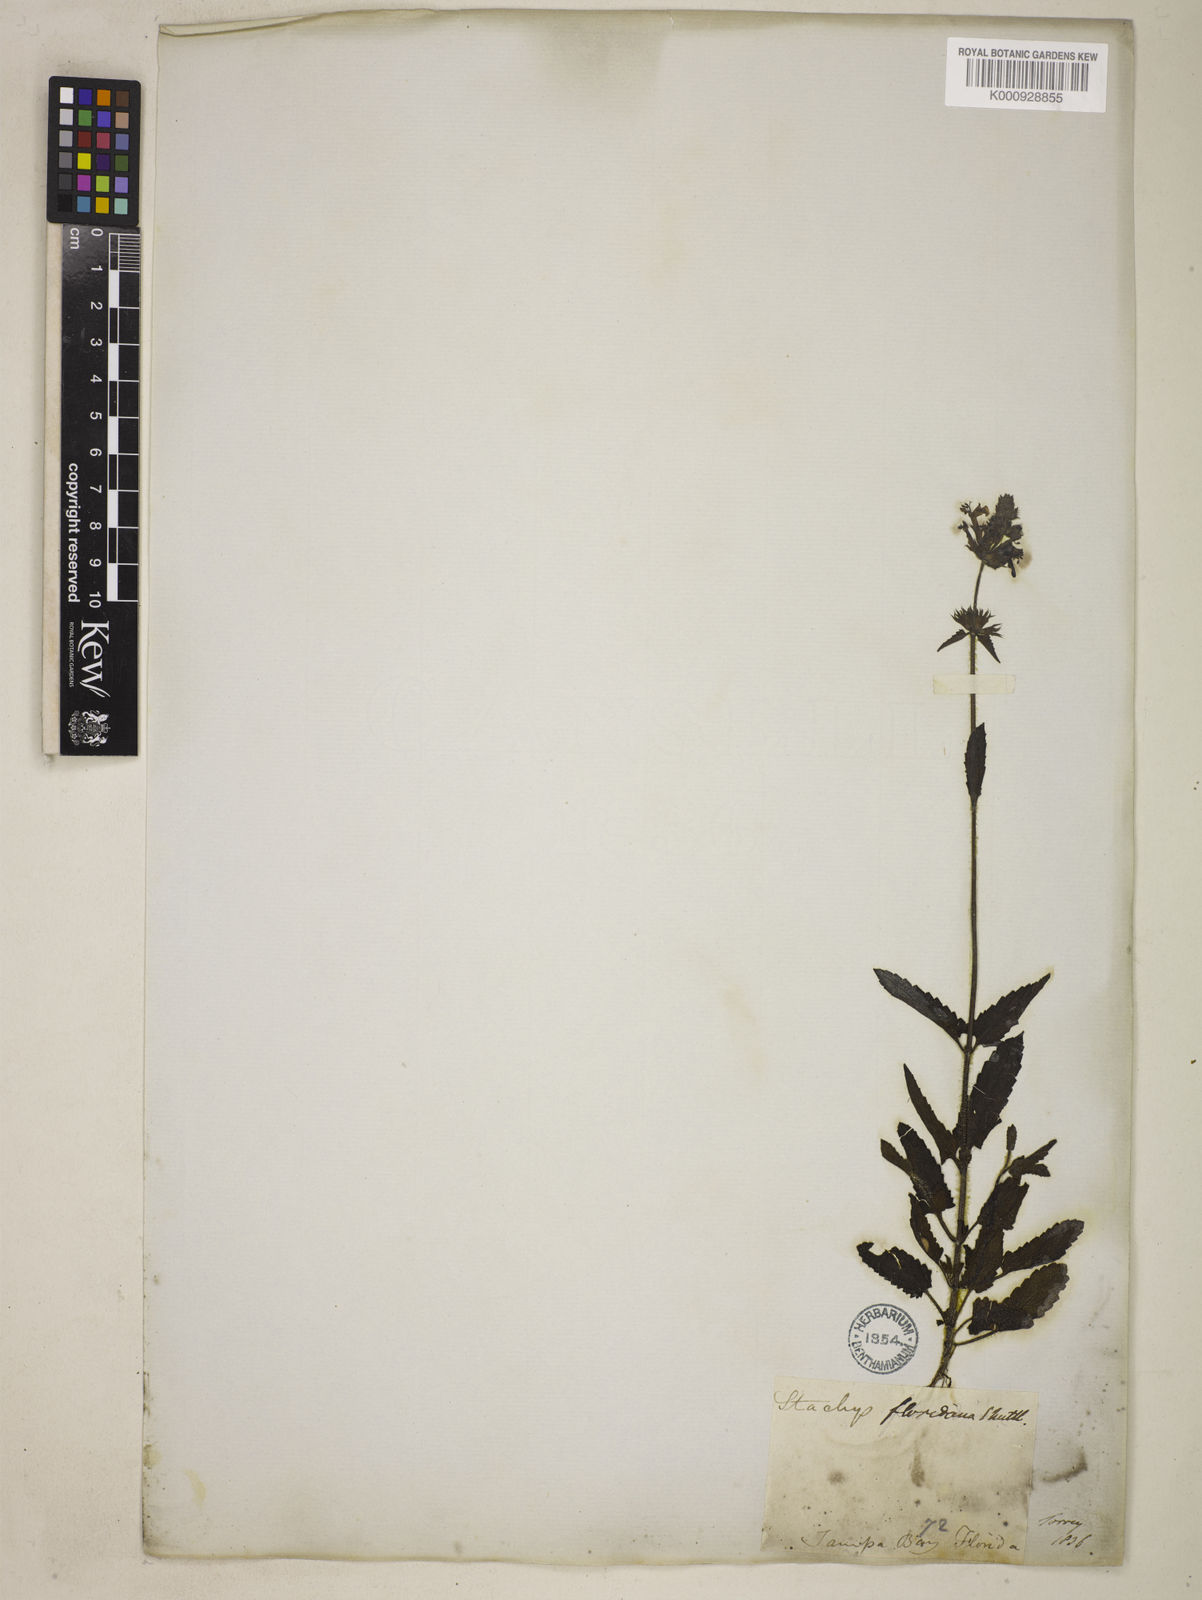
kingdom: Plantae
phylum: Tracheophyta
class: Magnoliopsida
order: Lamiales
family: Lamiaceae
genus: Stachys
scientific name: Stachys floridana
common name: Florida betony
